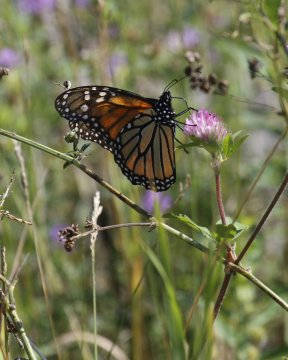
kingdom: Animalia
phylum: Arthropoda
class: Insecta
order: Lepidoptera
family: Nymphalidae
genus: Danaus
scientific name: Danaus plexippus
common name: Monarch
